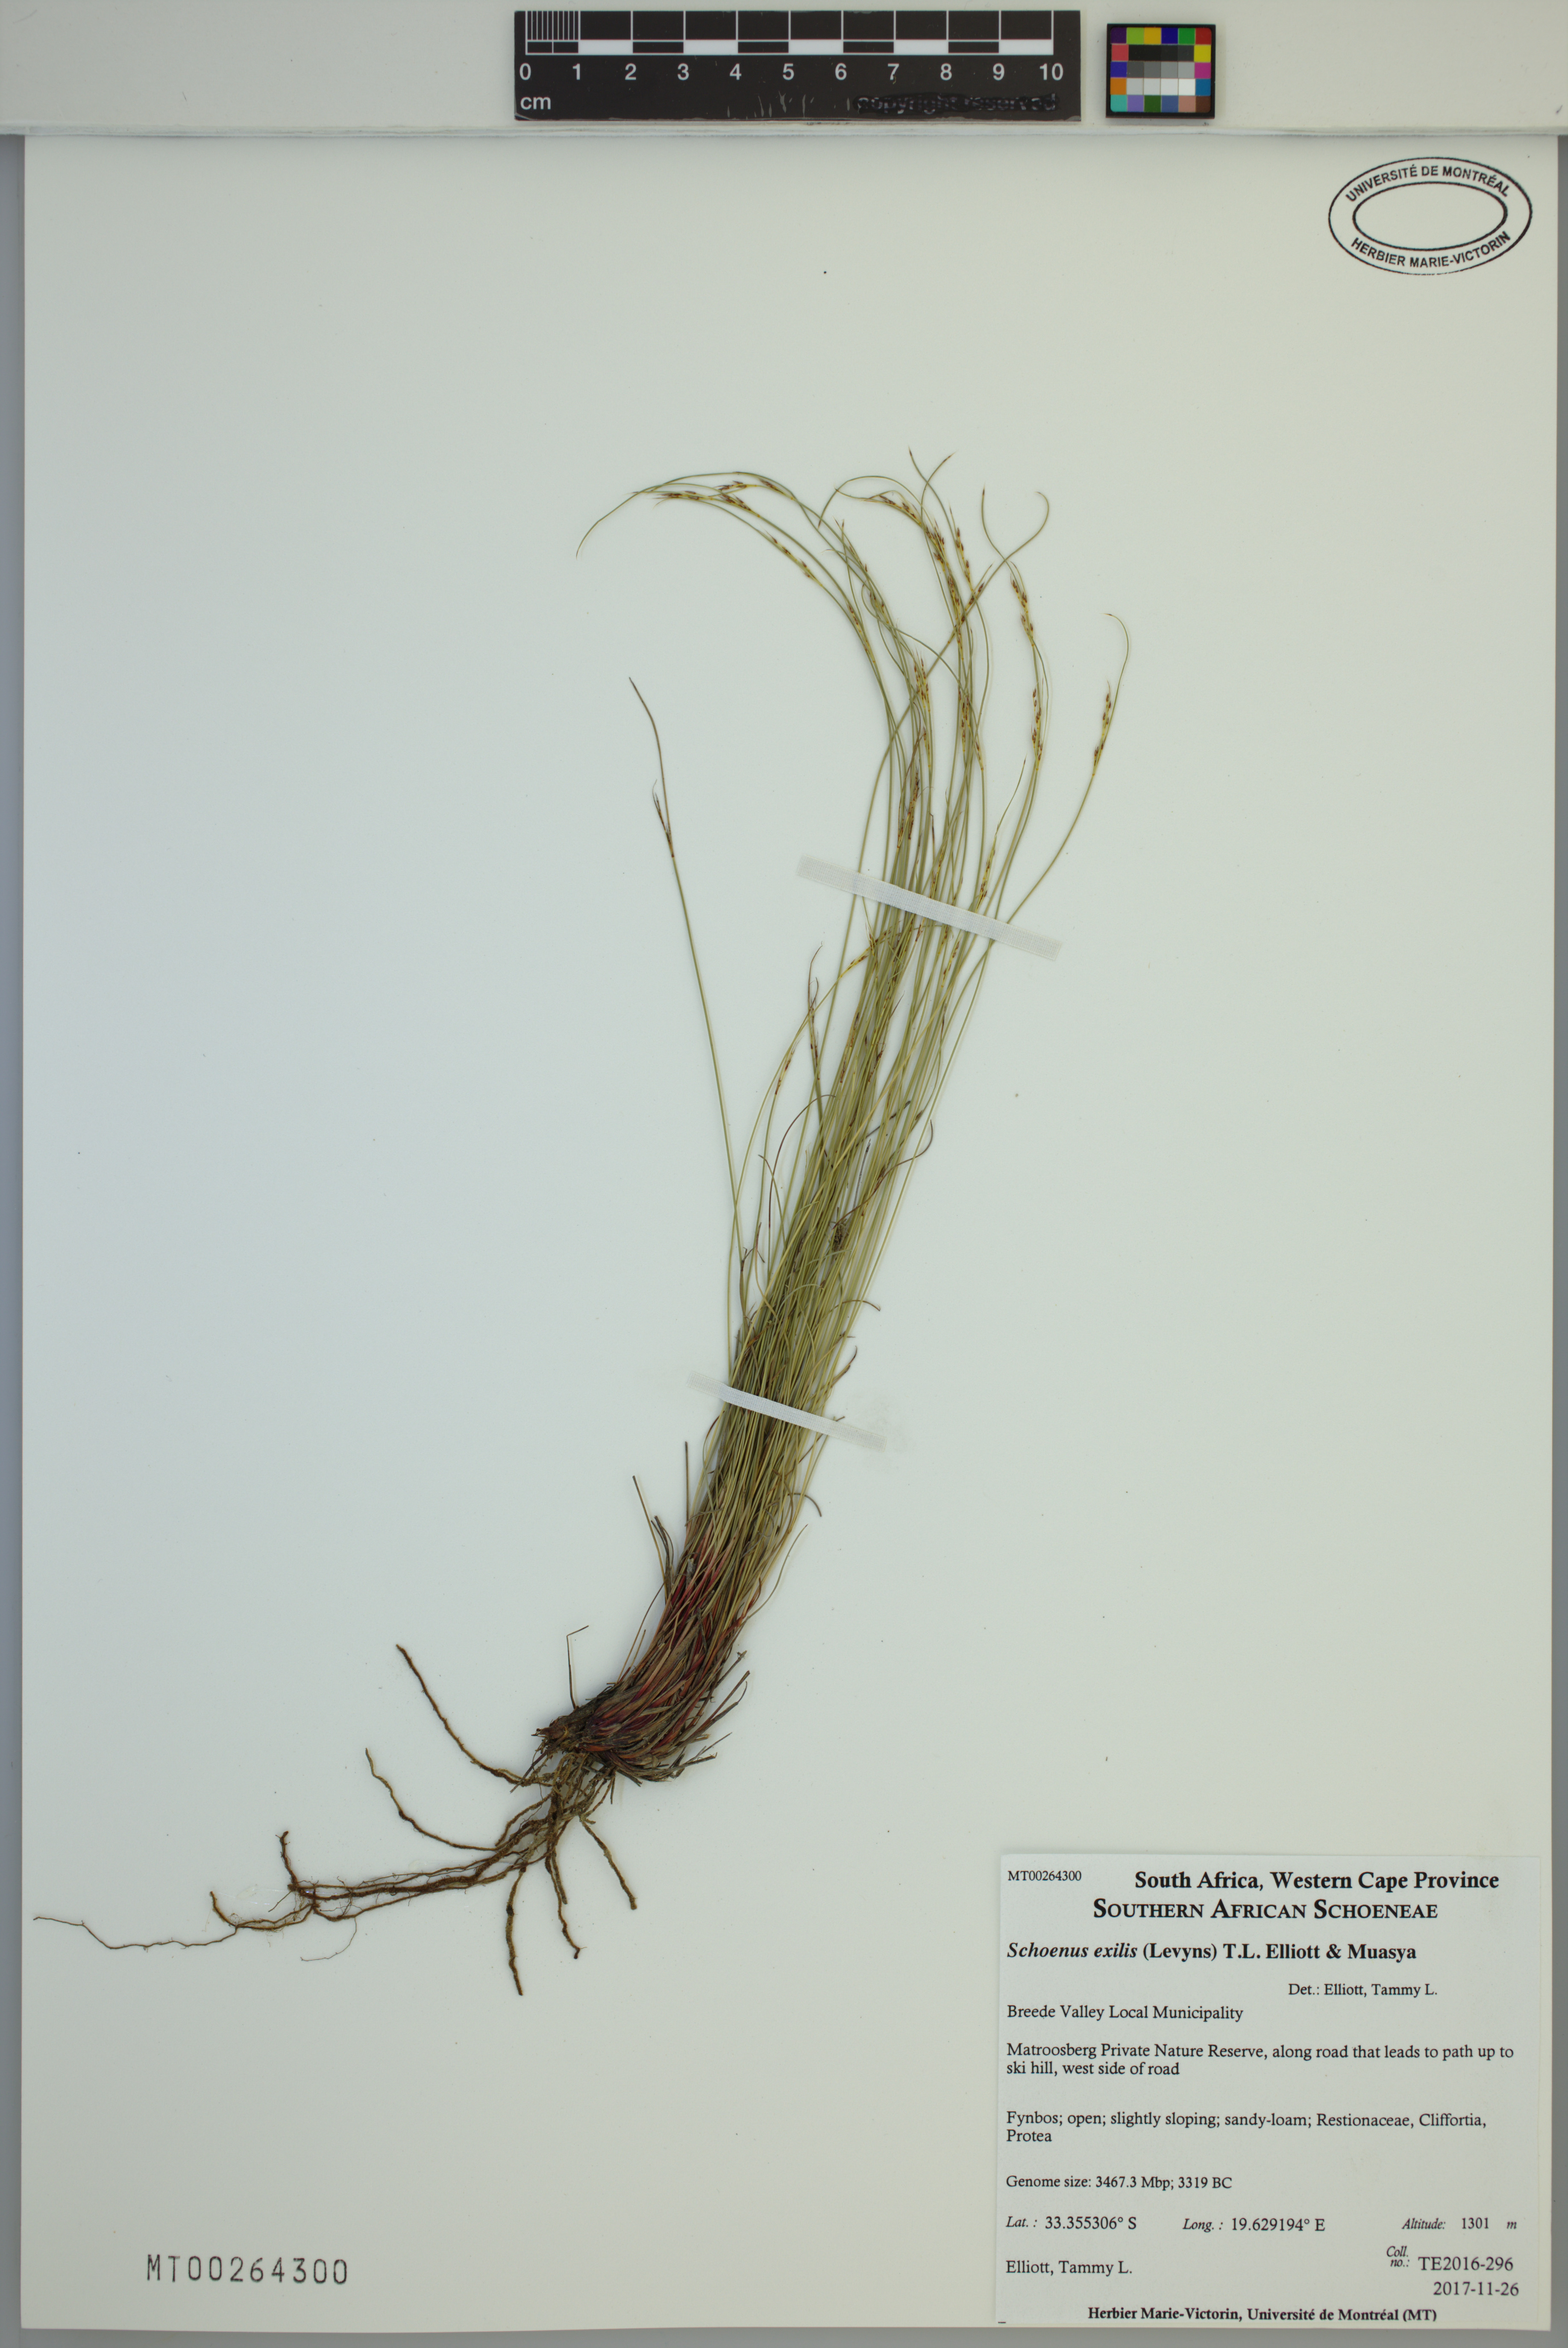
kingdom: Plantae
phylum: Tracheophyta
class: Liliopsida
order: Poales
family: Cyperaceae
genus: Schoenus
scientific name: Schoenus exilis
